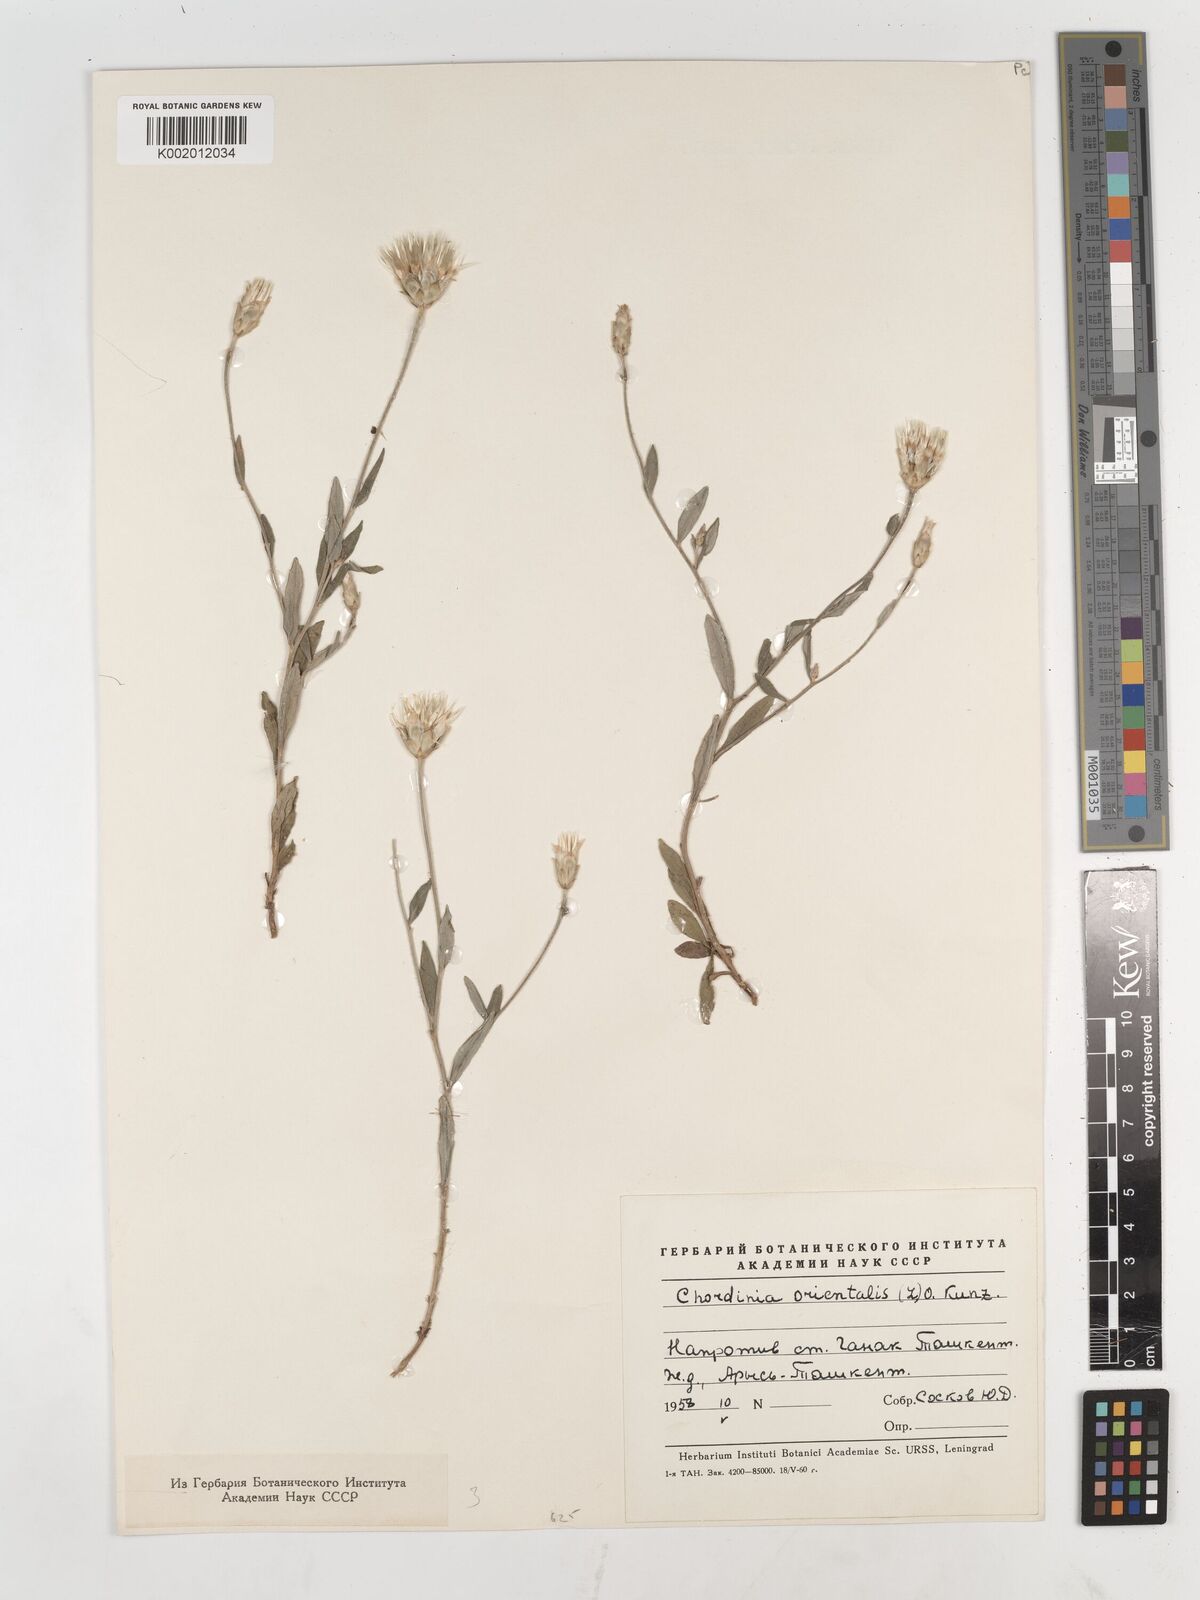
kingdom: Plantae
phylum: Tracheophyta
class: Magnoliopsida
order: Asterales
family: Asteraceae
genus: Chardinia
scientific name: Chardinia orientalis
